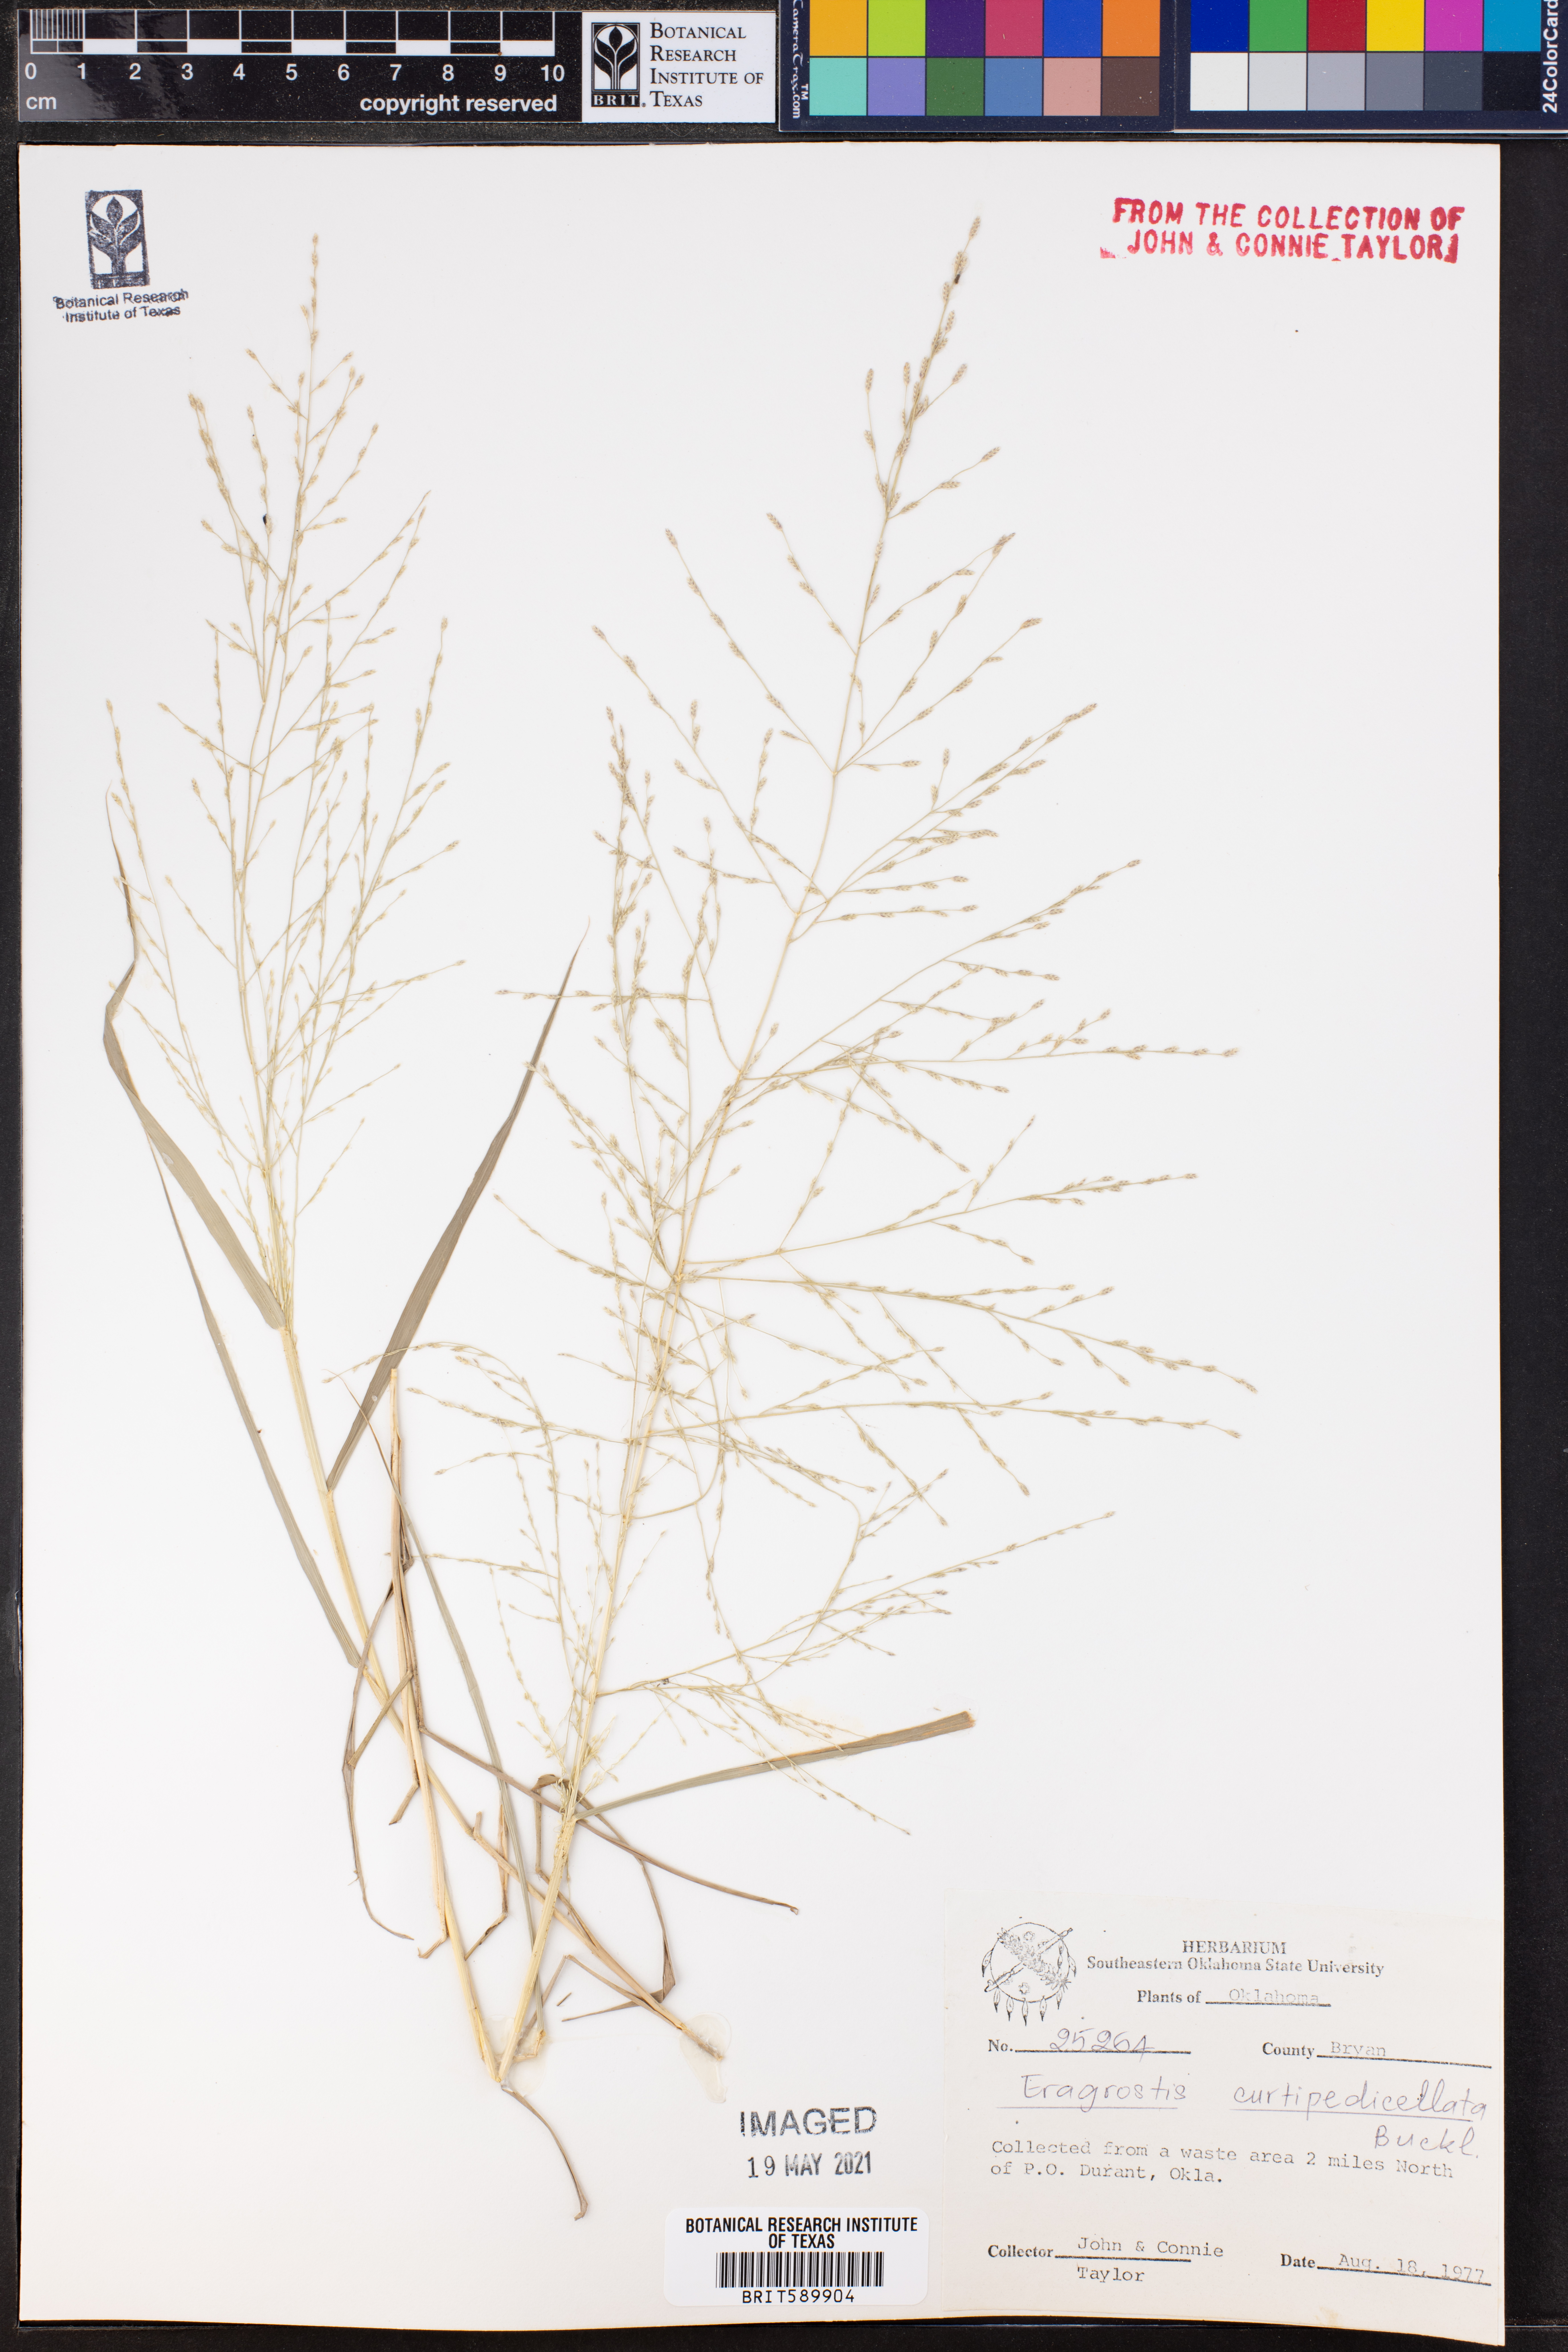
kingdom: Plantae
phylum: Tracheophyta
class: Liliopsida
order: Poales
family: Poaceae
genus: Eragrostis
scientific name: Eragrostis curtipedicellata
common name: Gummy love grass
